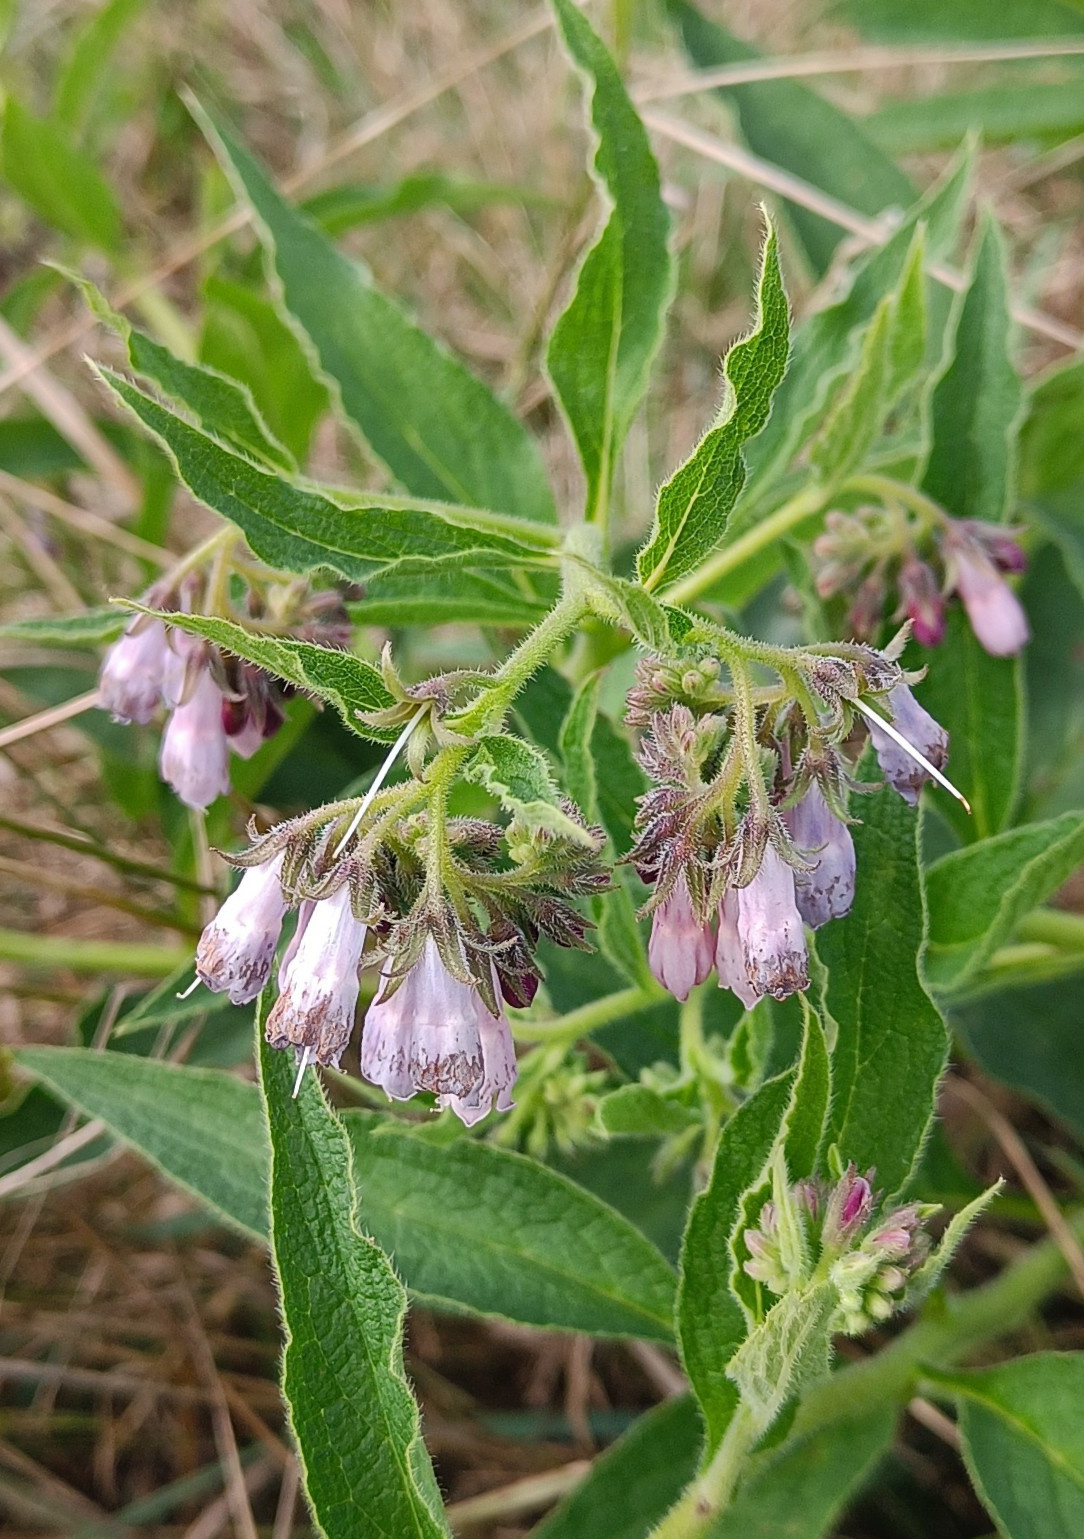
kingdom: Plantae
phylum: Tracheophyta
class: Magnoliopsida
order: Boraginales
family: Boraginaceae
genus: Symphytum
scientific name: Symphytum uplandicum
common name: Foder-kulsukker
